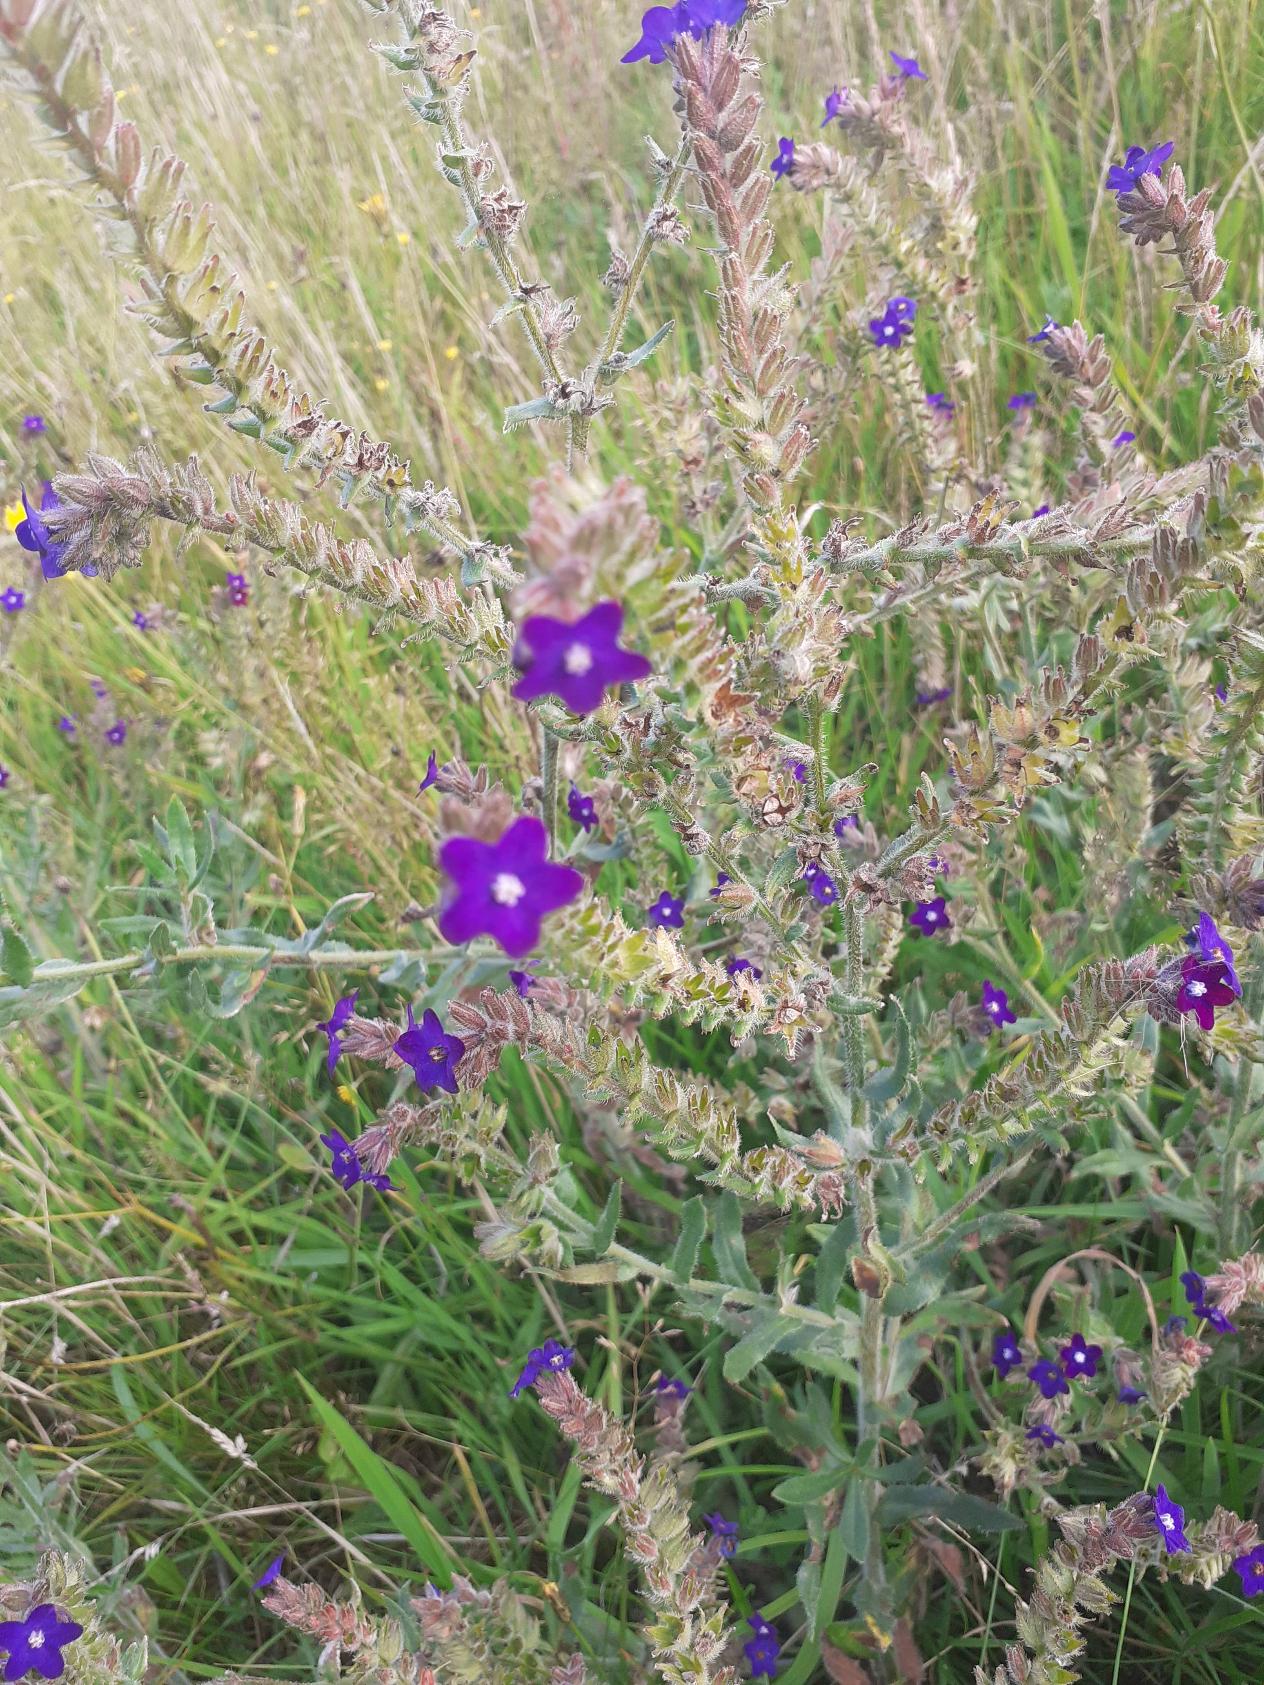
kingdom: Plantae
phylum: Tracheophyta
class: Magnoliopsida
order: Boraginales
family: Boraginaceae
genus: Anchusa
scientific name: Anchusa officinalis
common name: Læge-oksetunge
